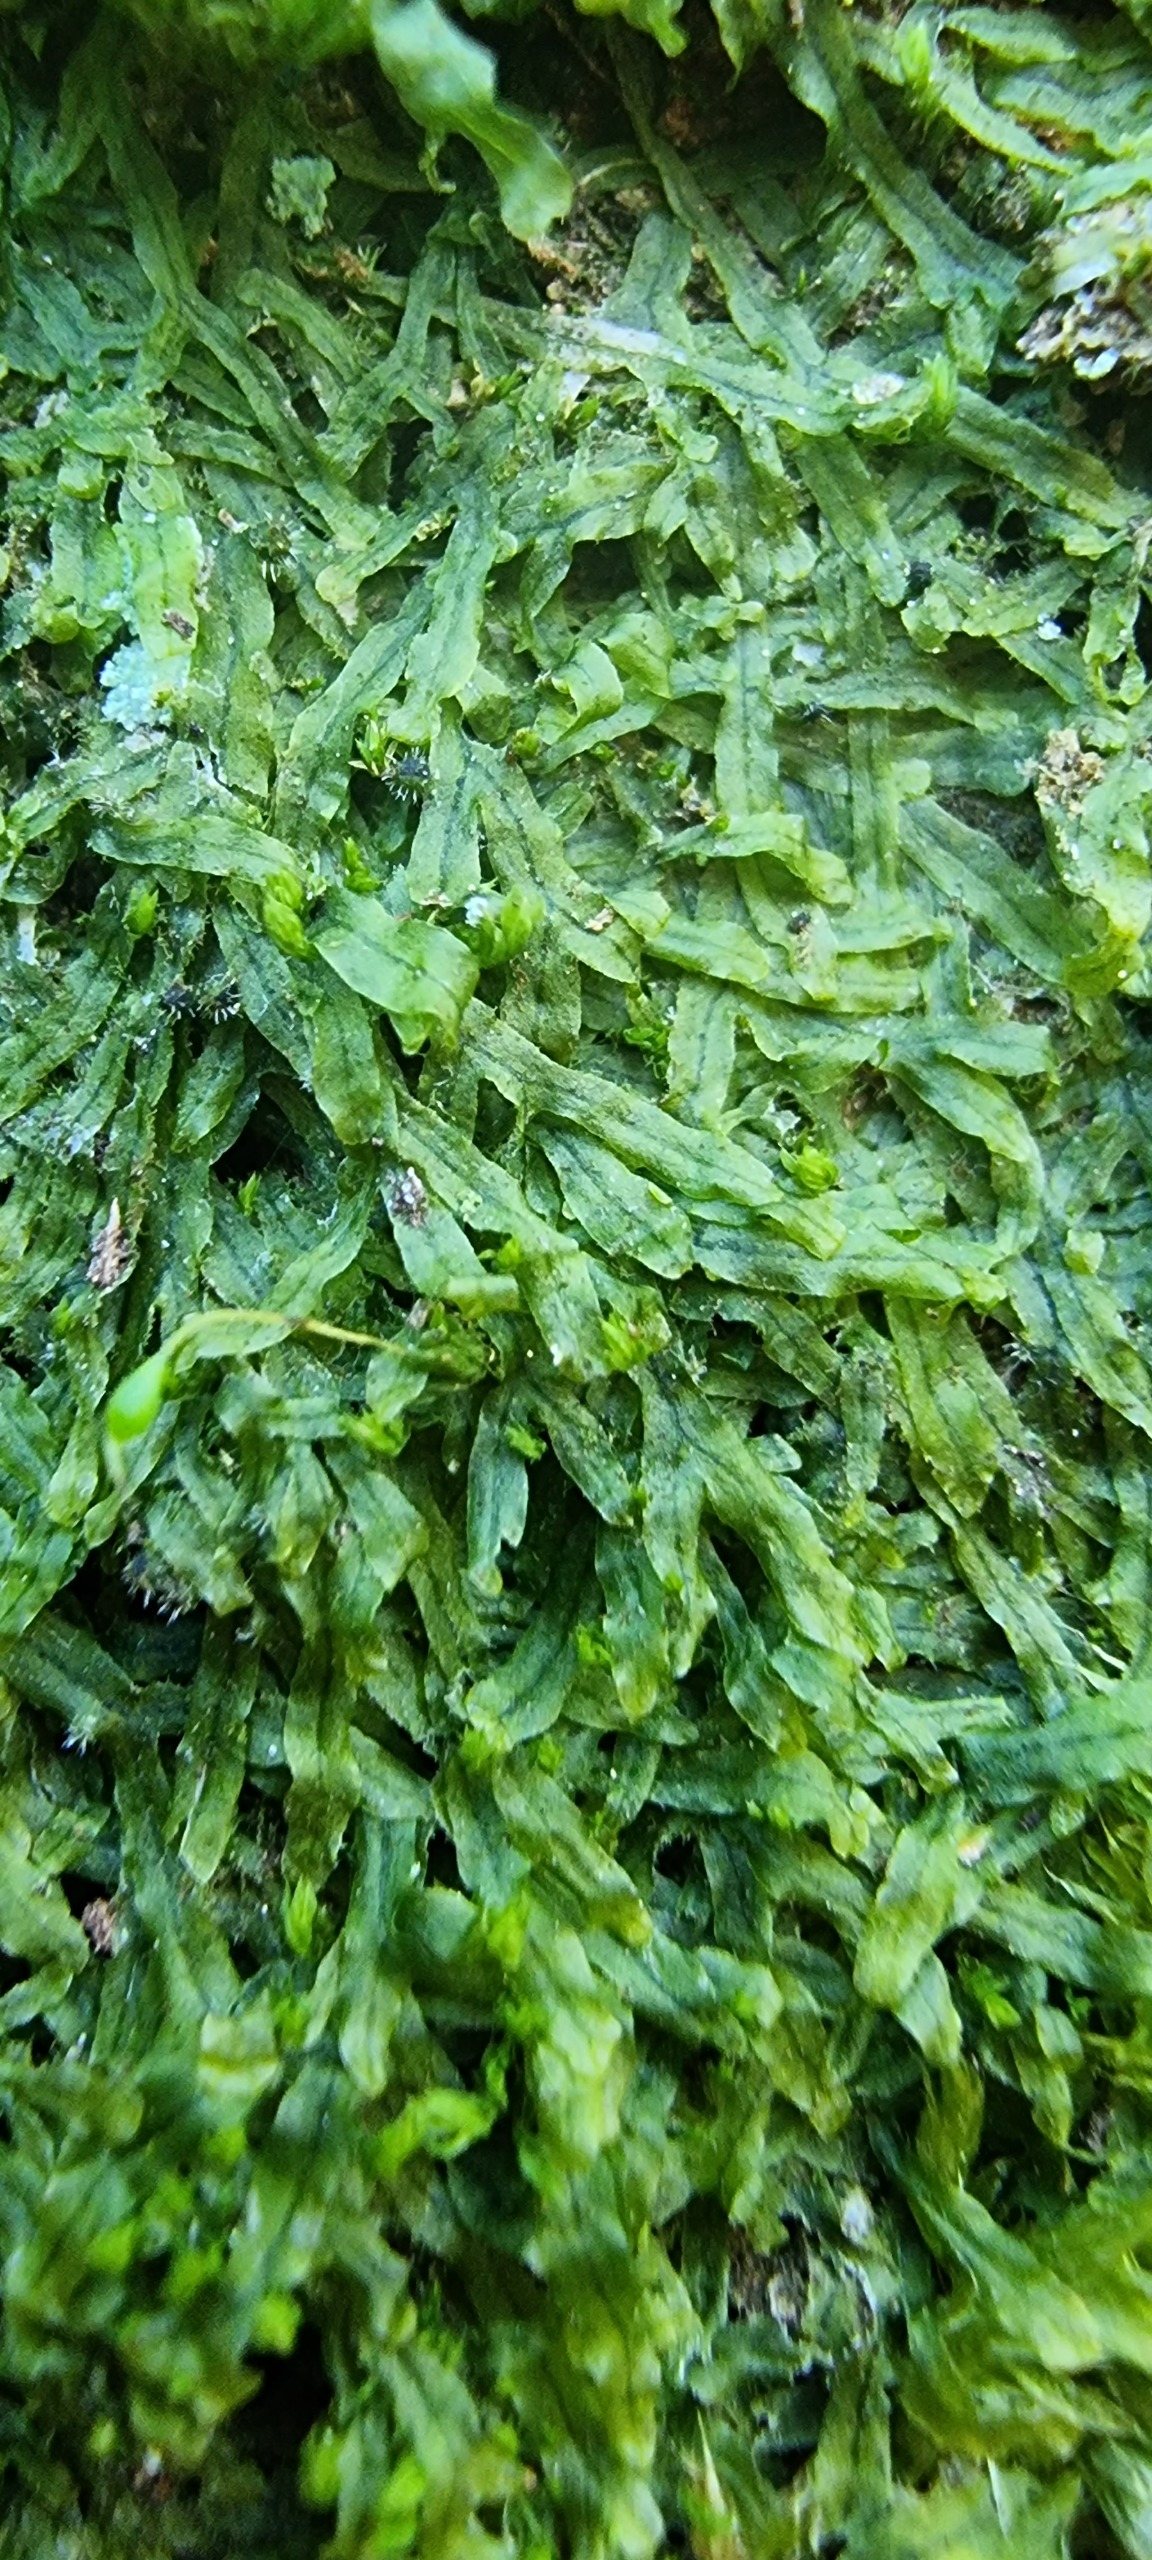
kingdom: Plantae
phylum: Marchantiophyta
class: Jungermanniopsida
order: Metzgeriales
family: Metzgeriaceae
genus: Metzgeria
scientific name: Metzgeria furcata
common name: Almindelig gaffelløv
